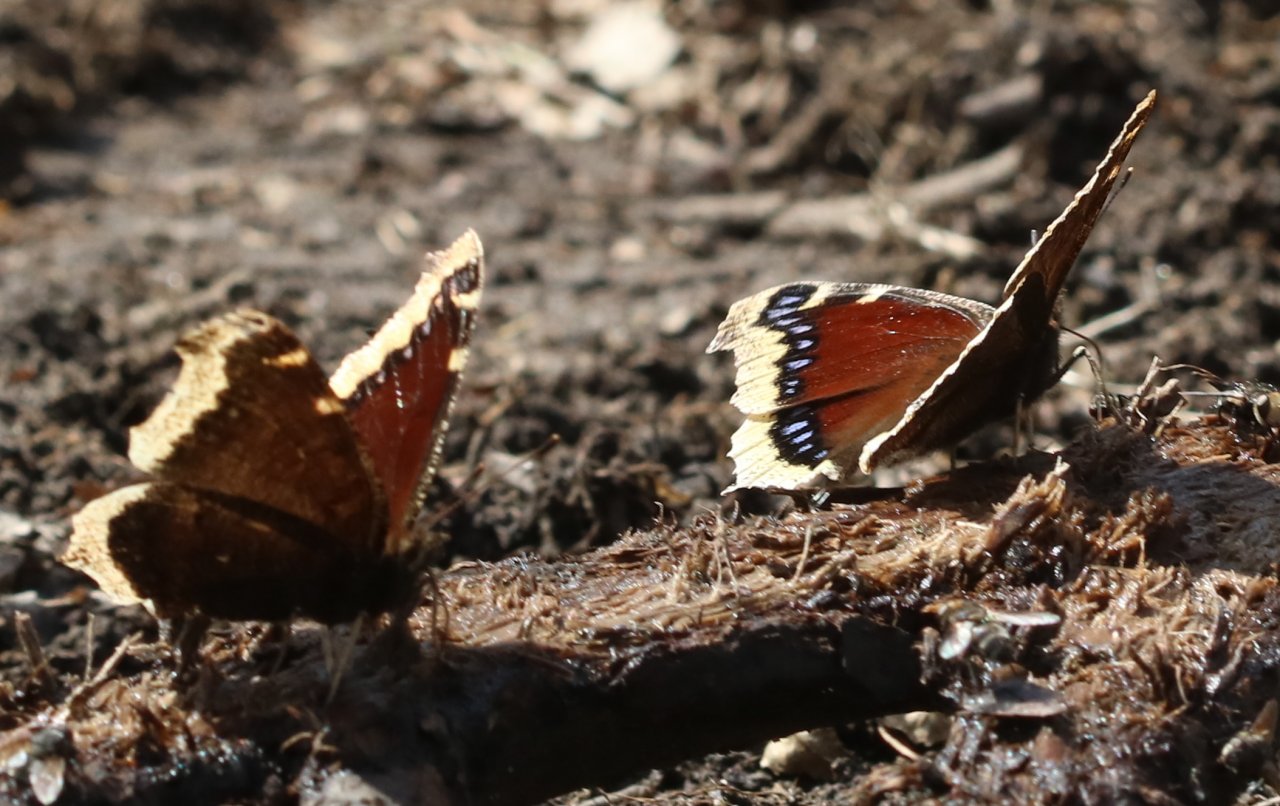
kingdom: Animalia
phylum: Arthropoda
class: Insecta
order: Lepidoptera
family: Nymphalidae
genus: Nymphalis
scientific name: Nymphalis antiopa
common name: Mourning Cloak
